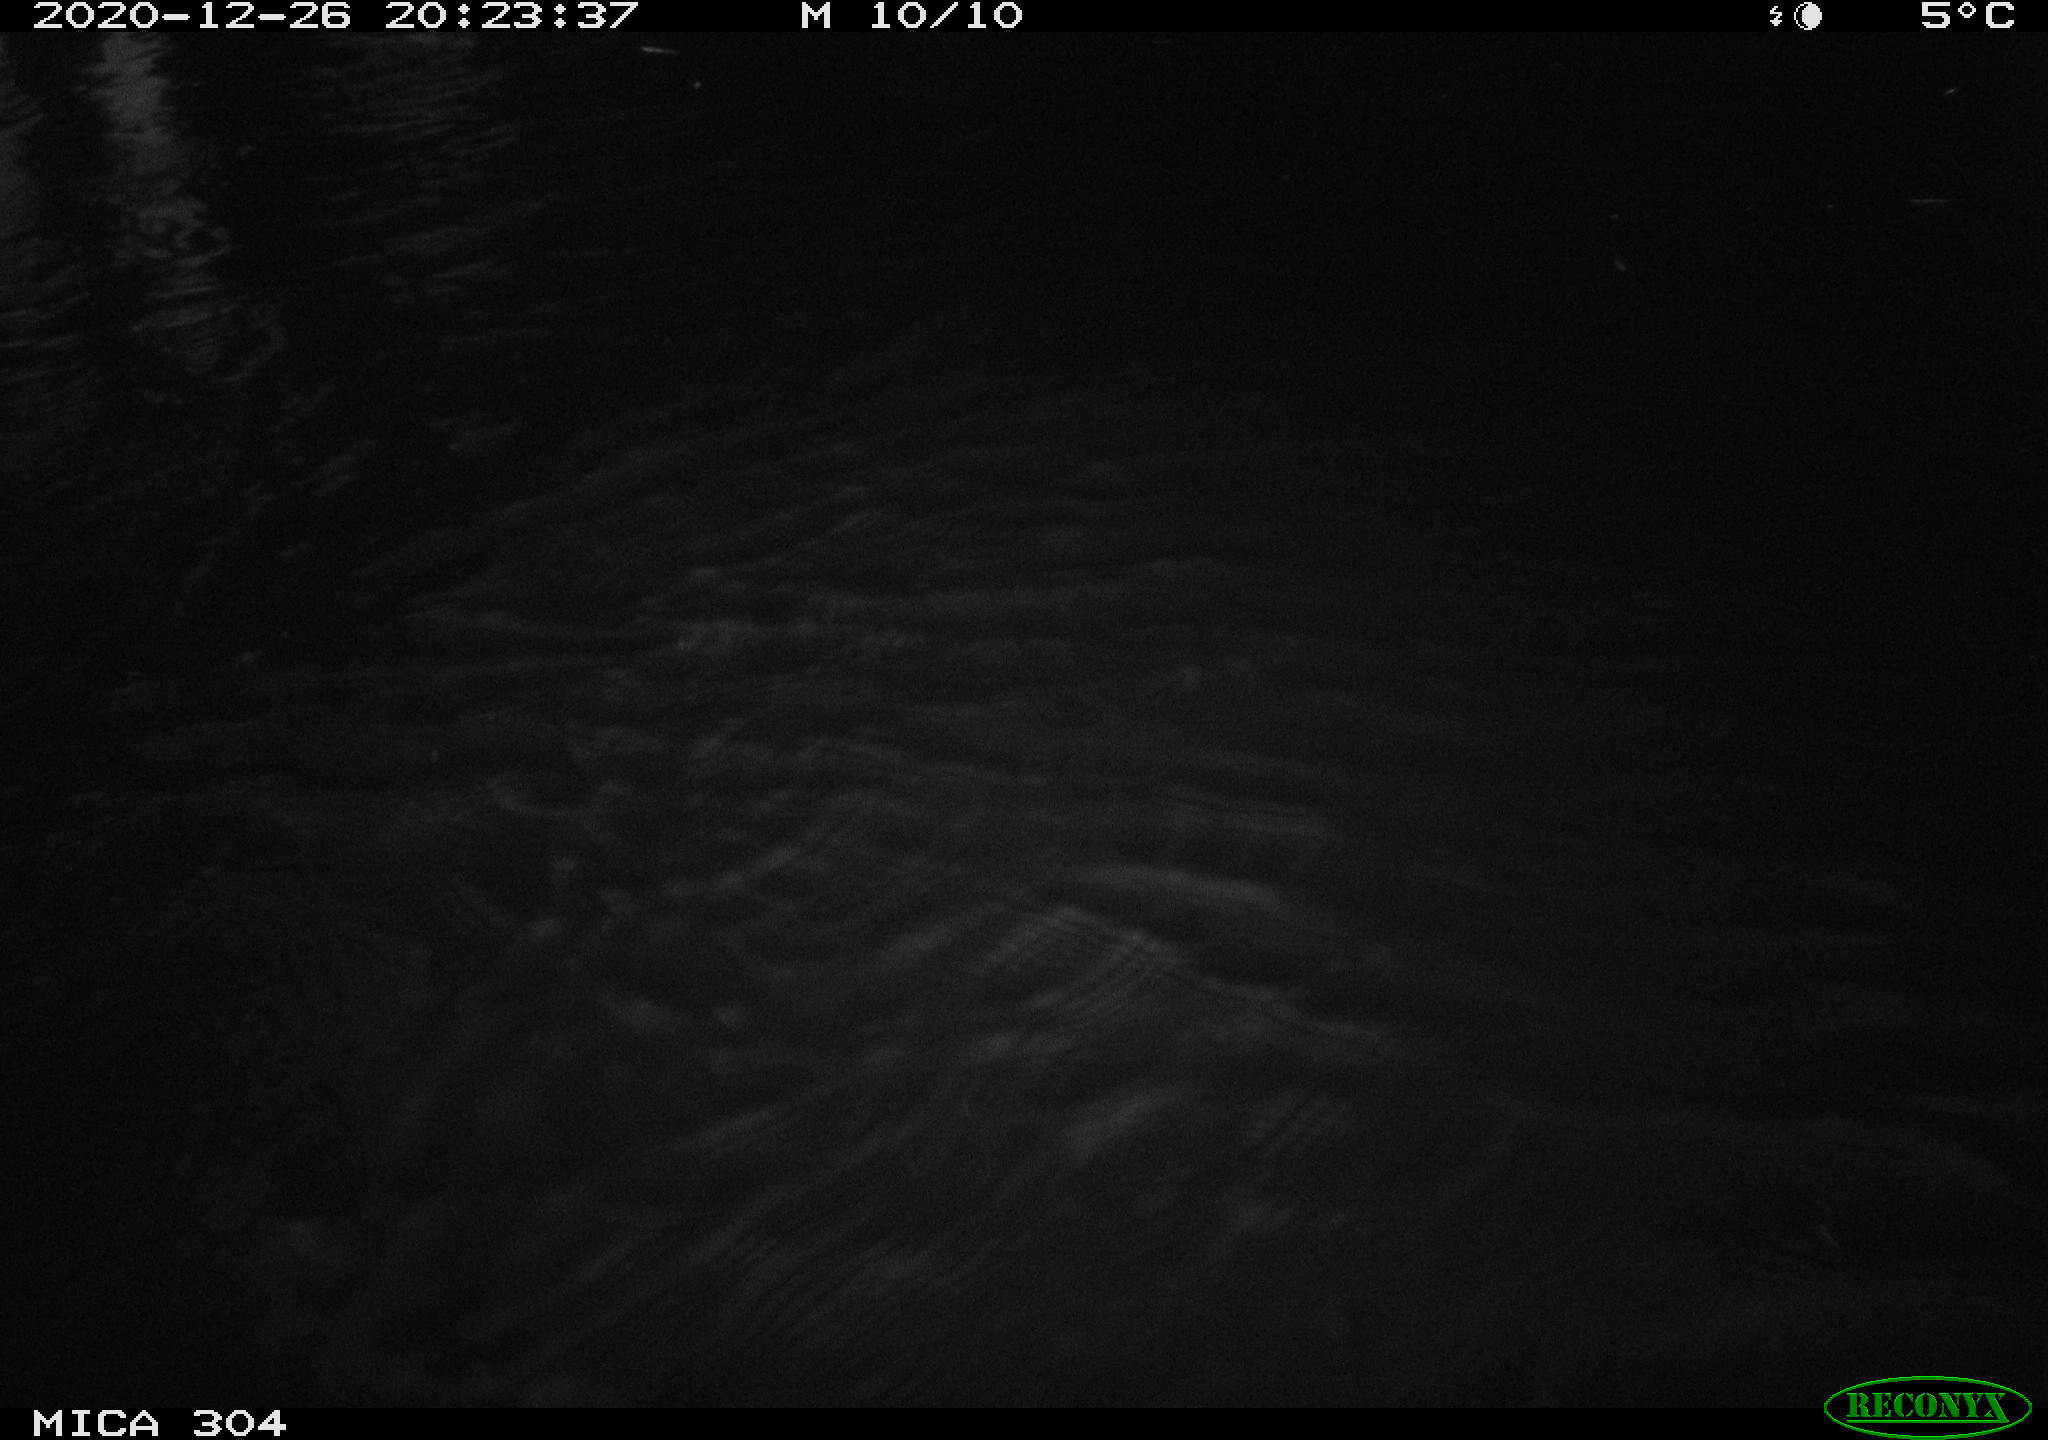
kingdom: Animalia
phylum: Chordata
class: Mammalia
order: Rodentia
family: Cricetidae
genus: Ondatra
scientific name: Ondatra zibethicus
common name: Muskrat
